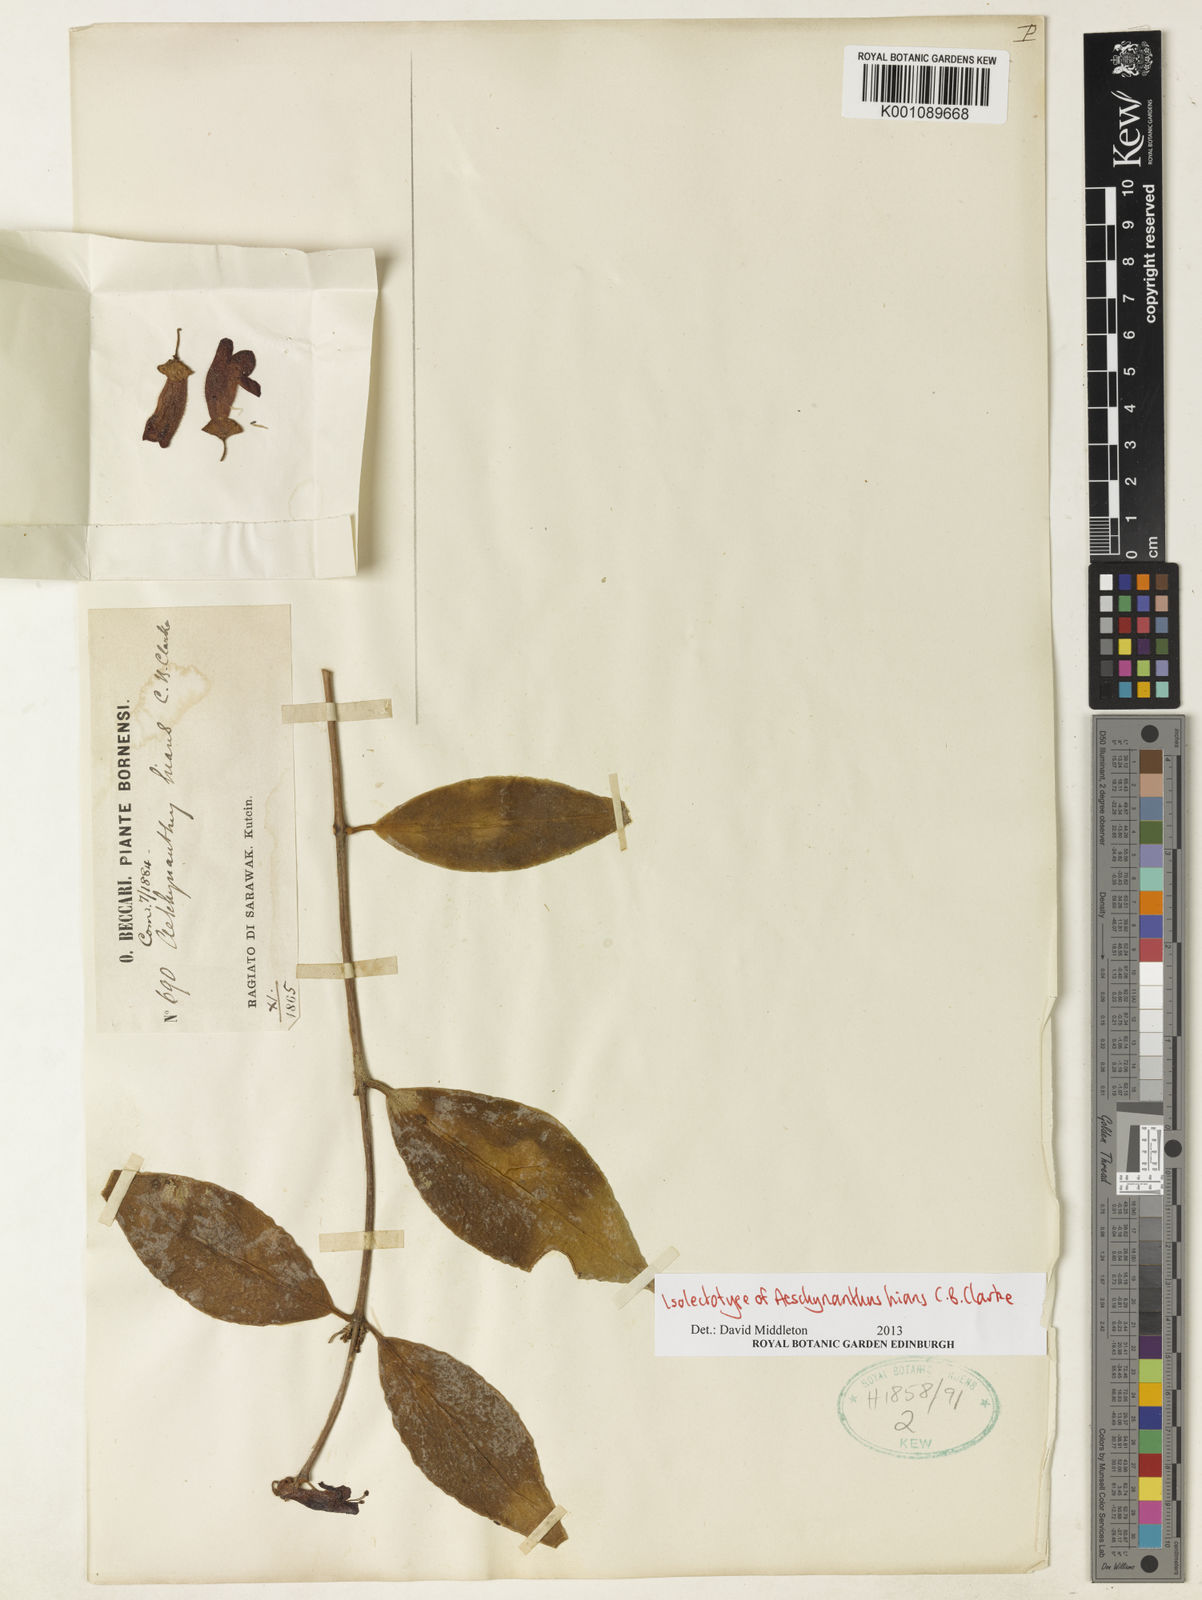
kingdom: Plantae
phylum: Tracheophyta
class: Magnoliopsida
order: Lamiales
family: Gesneriaceae
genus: Aeschynanthus
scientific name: Aeschynanthus hians
